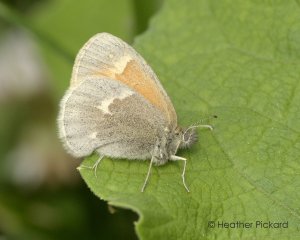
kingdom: Animalia
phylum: Arthropoda
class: Insecta
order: Lepidoptera
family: Nymphalidae
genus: Coenonympha
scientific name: Coenonympha tullia
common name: Large Heath
